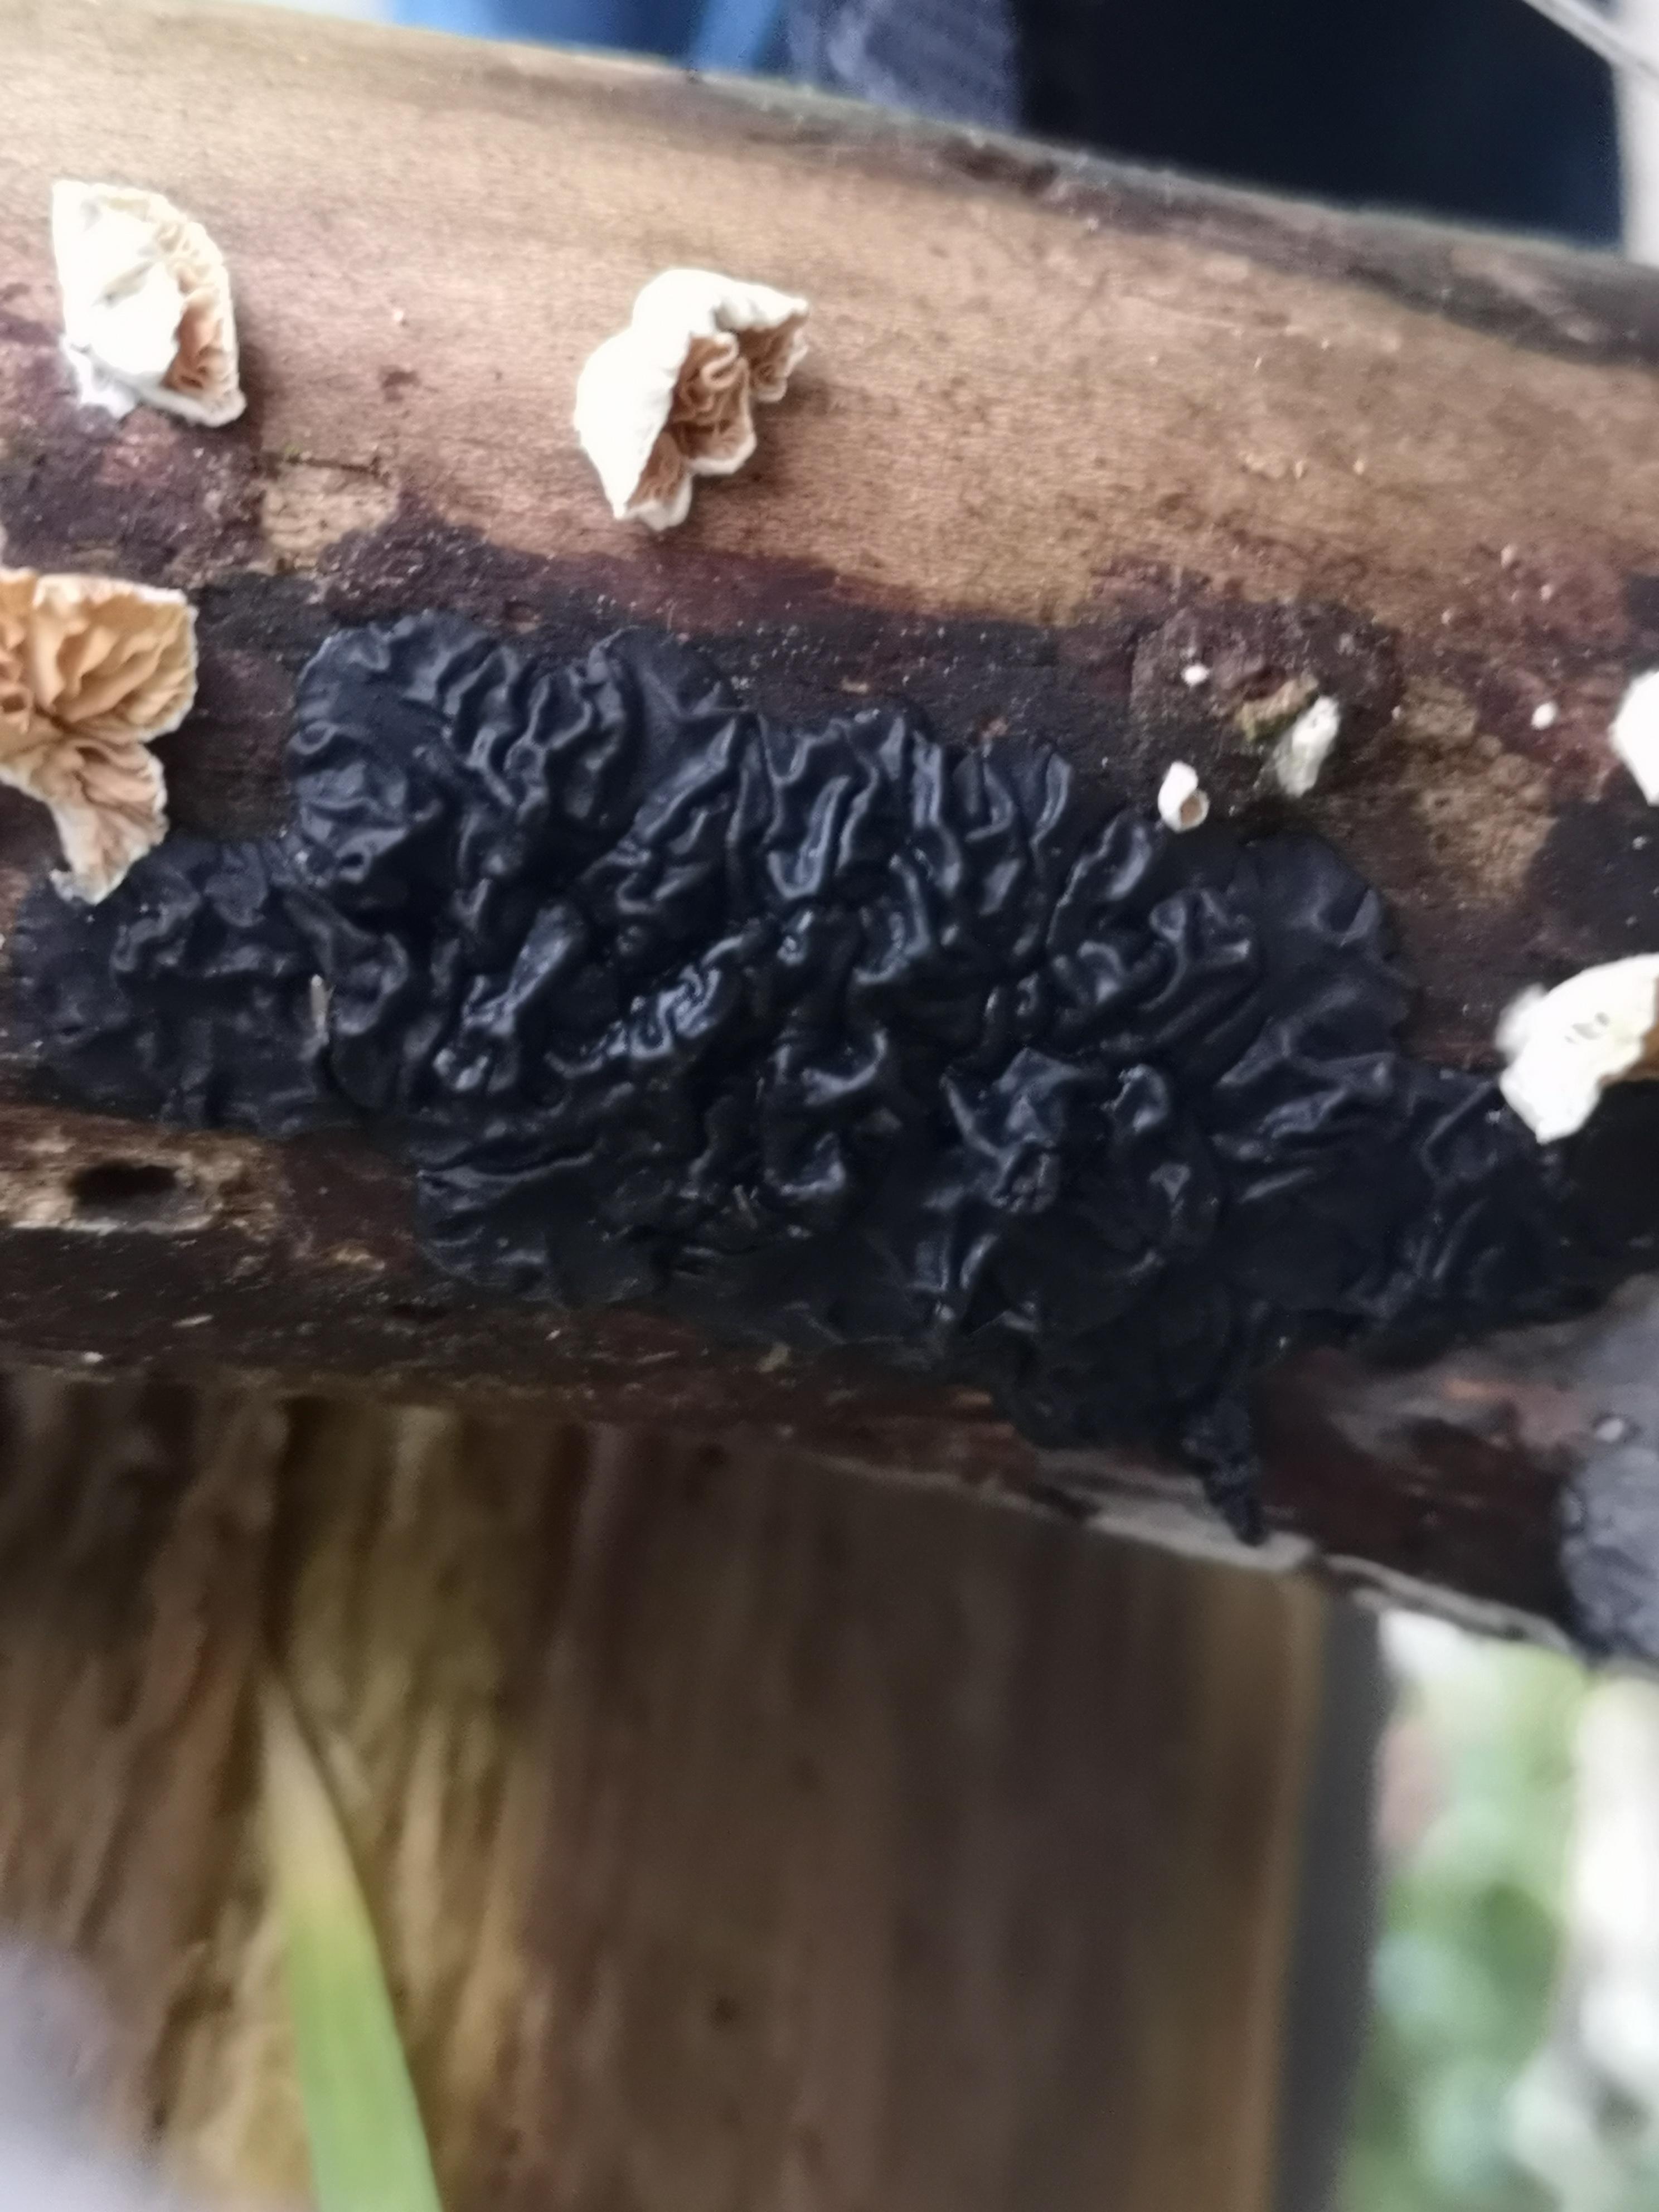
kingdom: Fungi
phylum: Basidiomycota
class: Agaricomycetes
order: Auriculariales
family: Auriculariaceae
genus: Exidia
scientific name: Exidia nigricans
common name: almindelig bævretop
